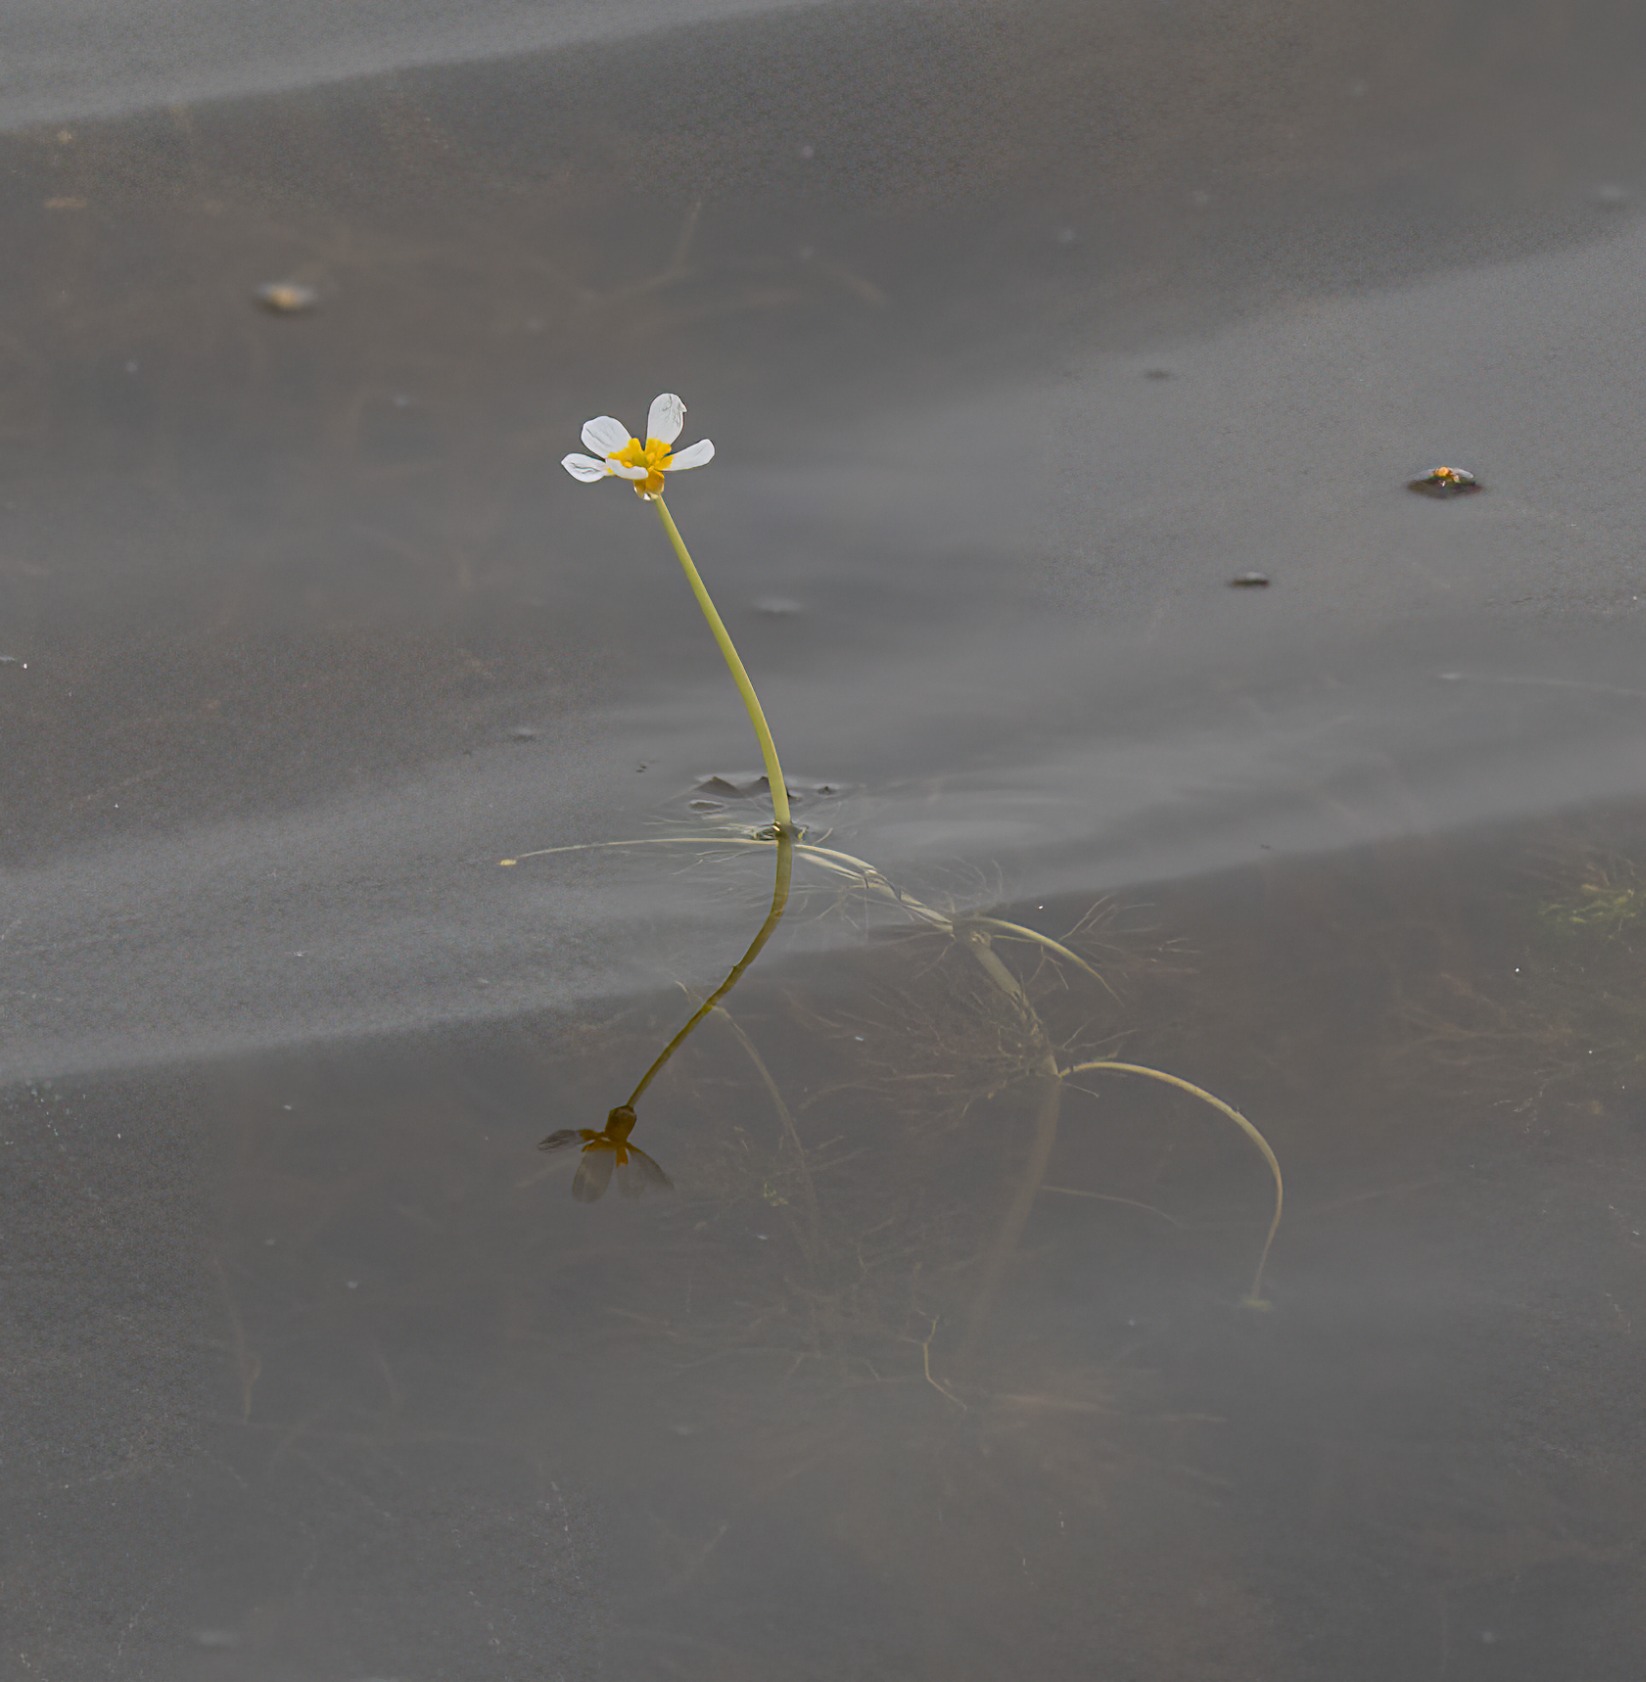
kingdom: Plantae
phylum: Tracheophyta
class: Magnoliopsida
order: Ranunculales
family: Ranunculaceae
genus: Ranunculus
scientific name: Ranunculus
